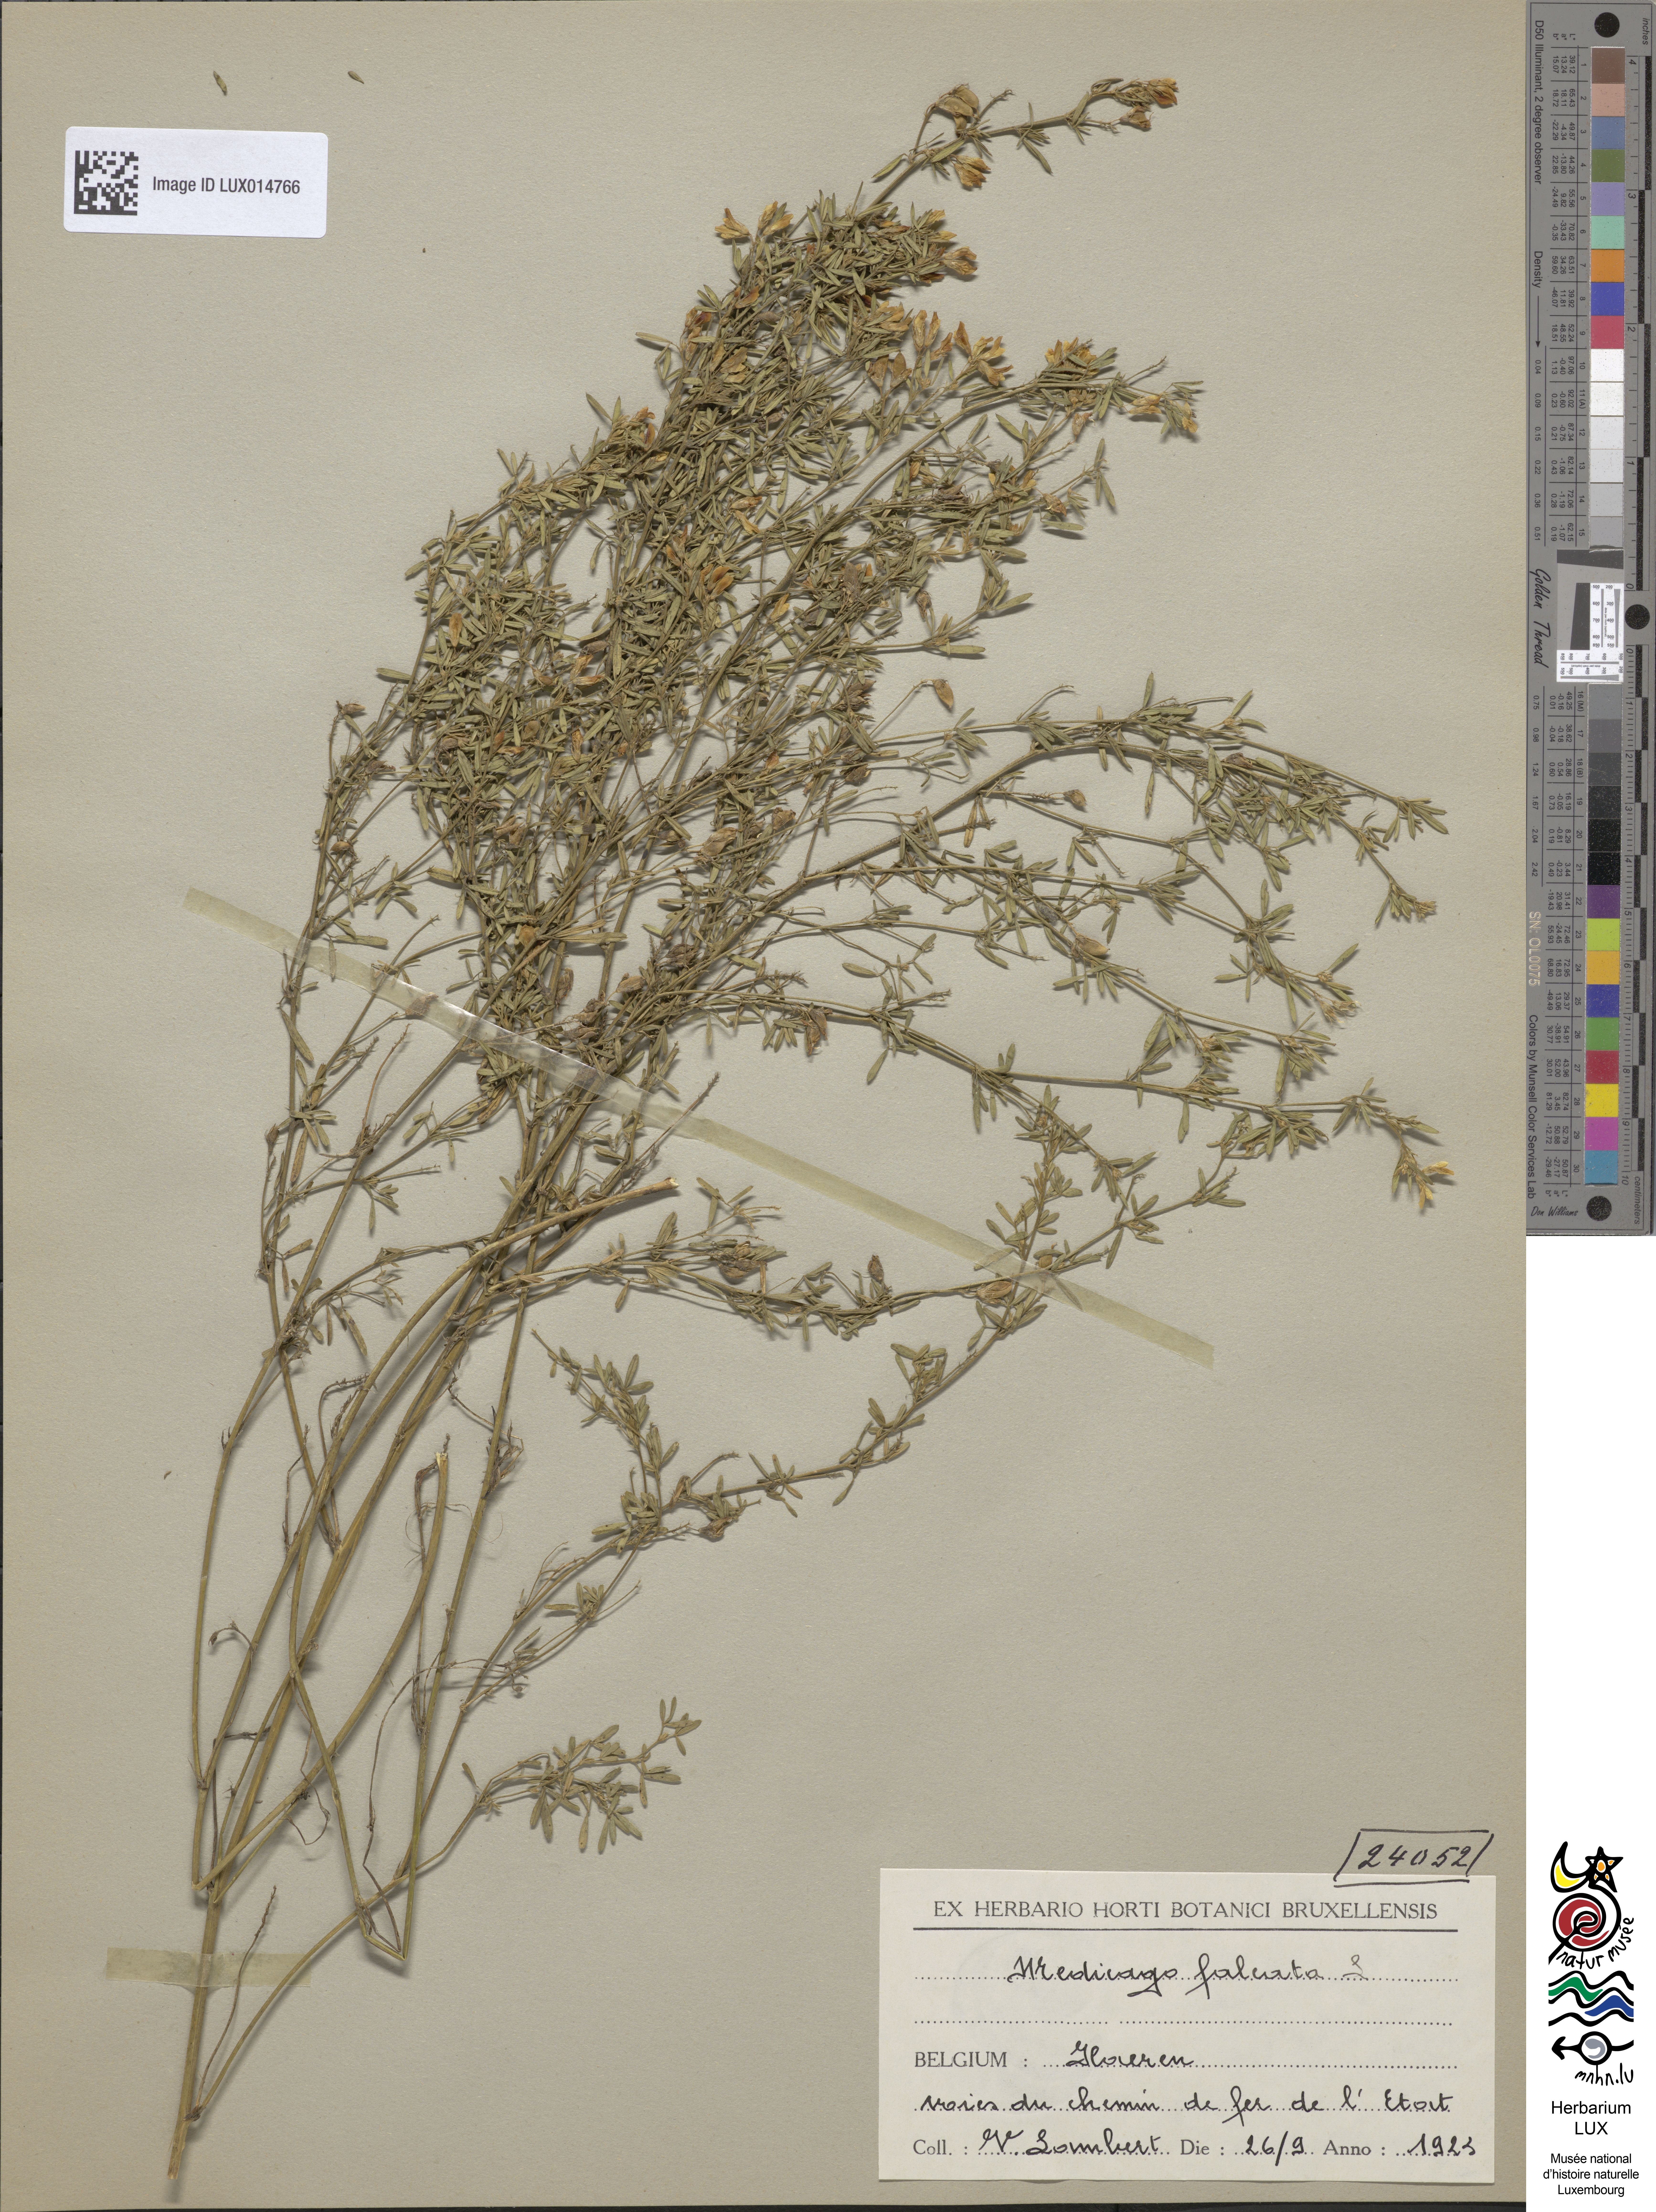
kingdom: Plantae
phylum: Tracheophyta
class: Magnoliopsida
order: Fabales
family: Fabaceae
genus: Medicago
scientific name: Medicago falcata
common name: Sickle medick
